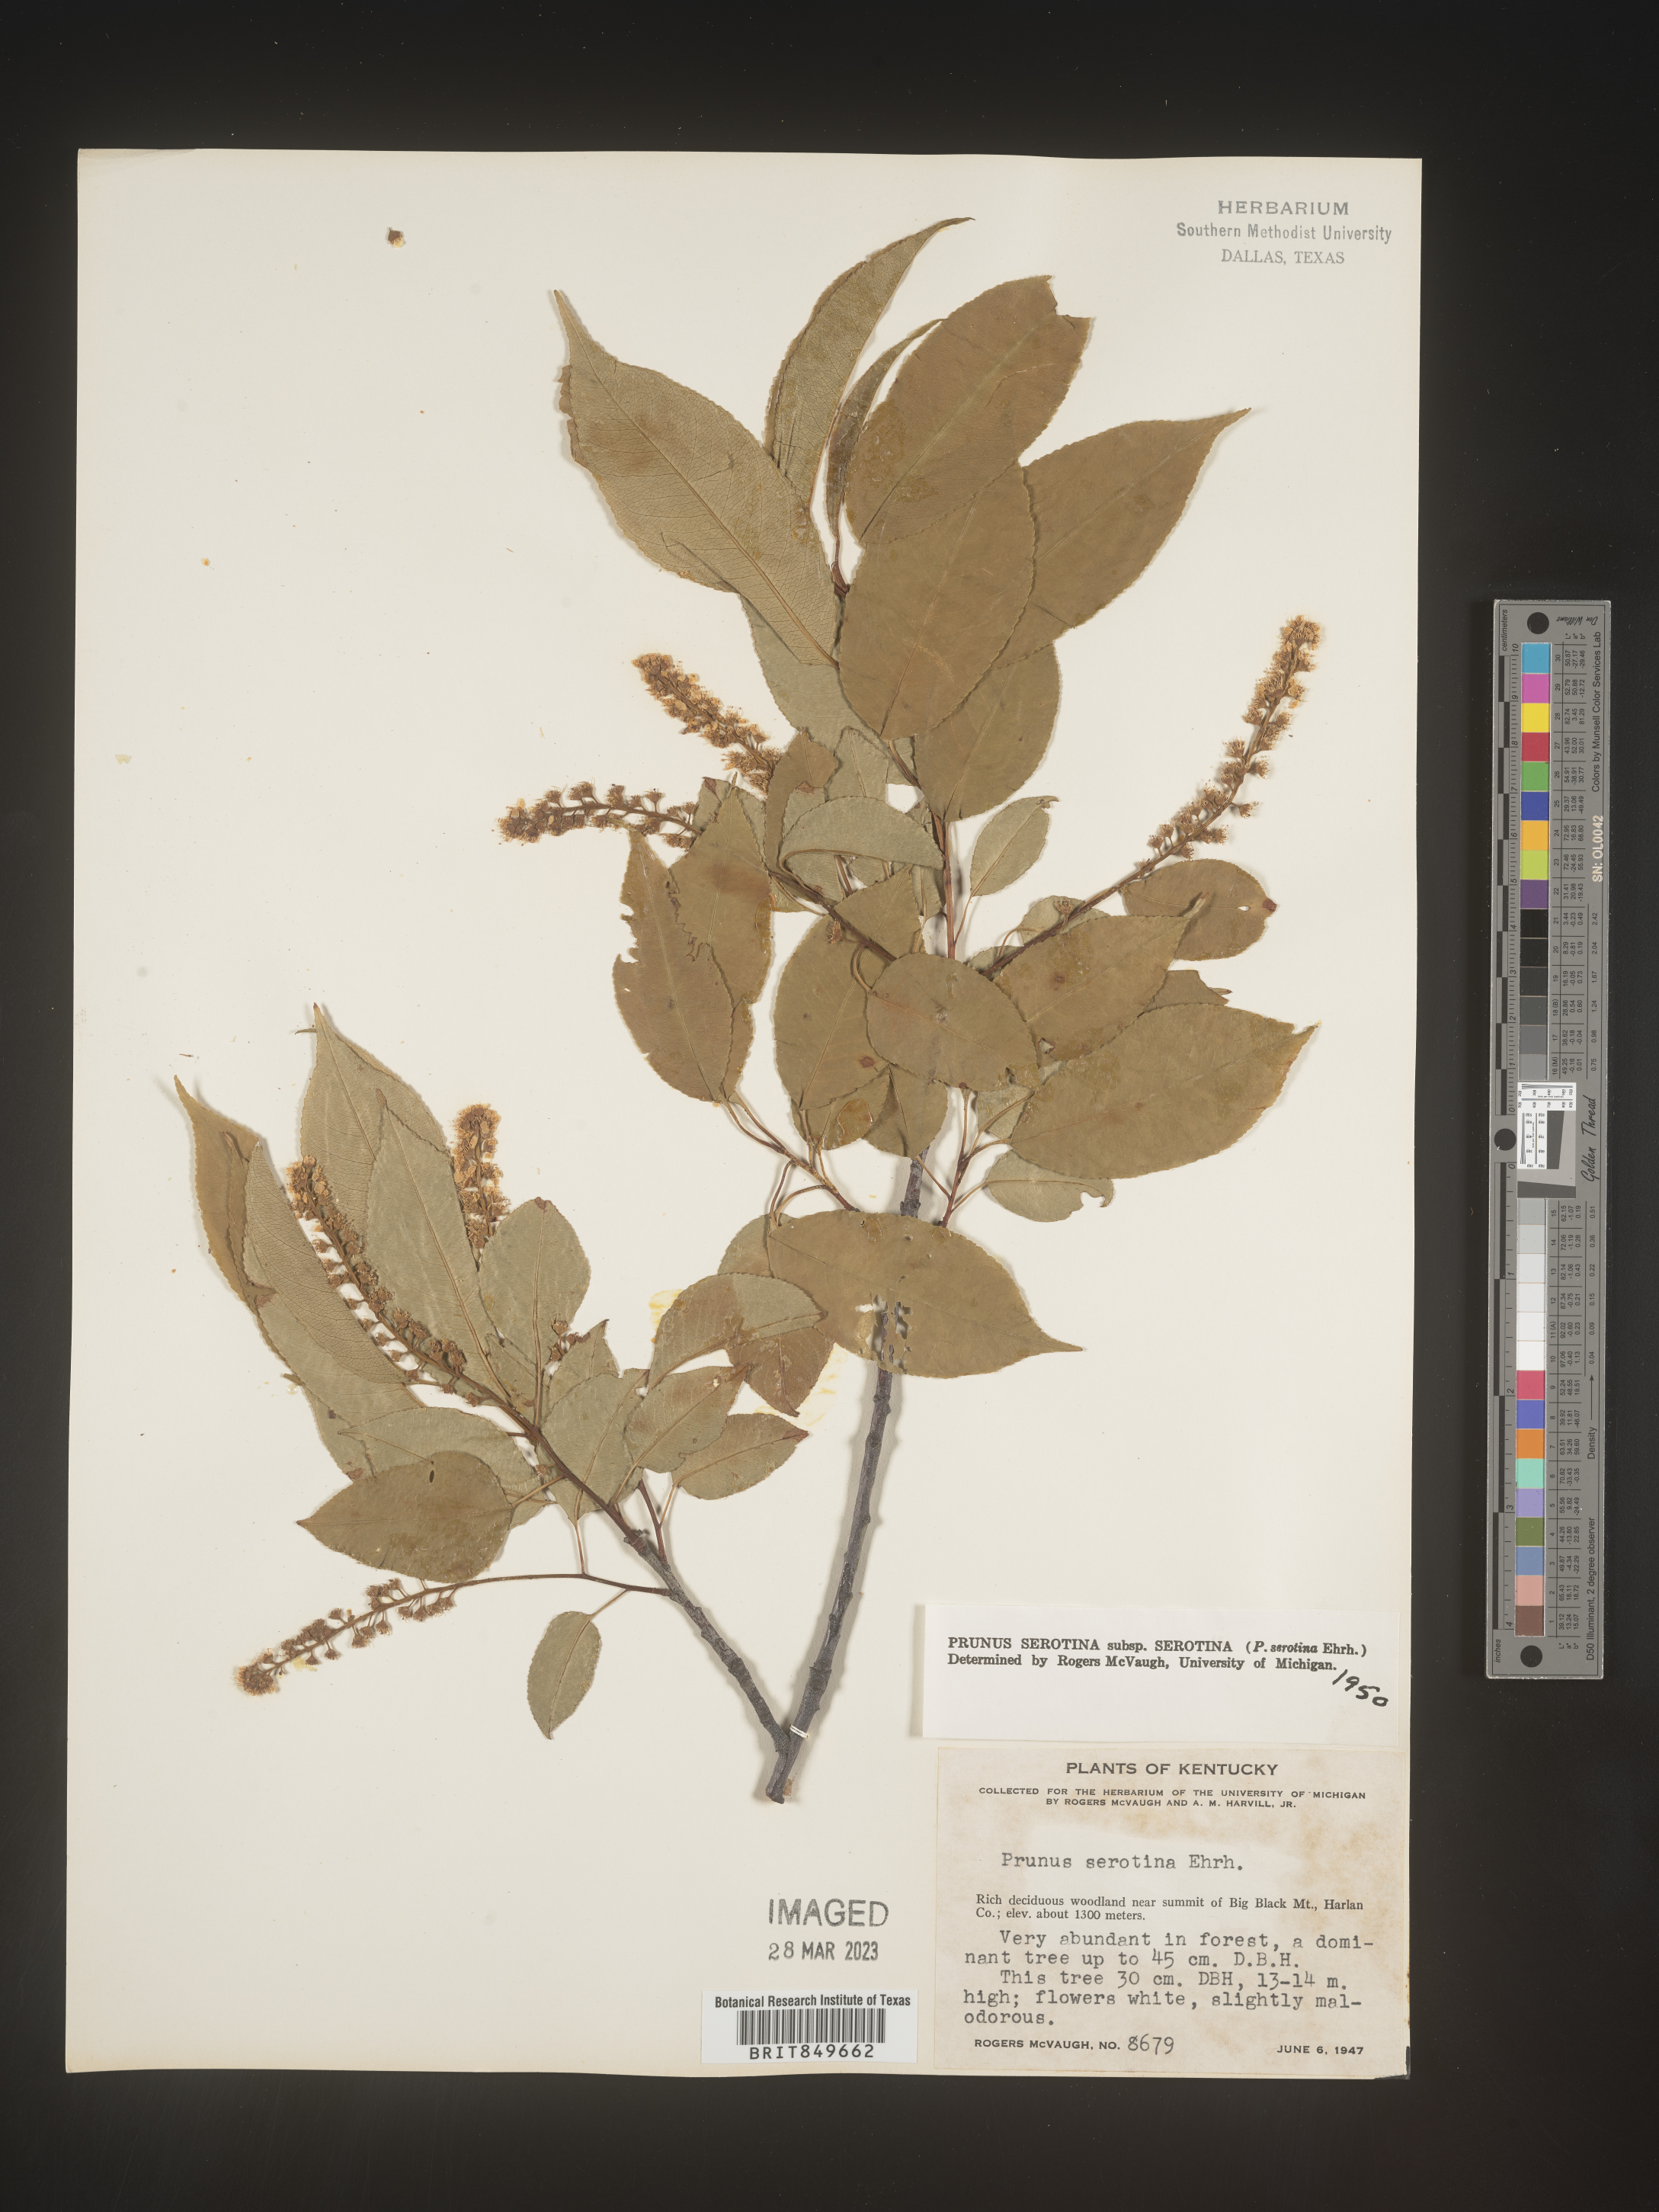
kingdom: Plantae
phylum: Tracheophyta
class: Magnoliopsida
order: Rosales
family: Rosaceae
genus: Prunus
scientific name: Prunus serotina
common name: Black cherry
